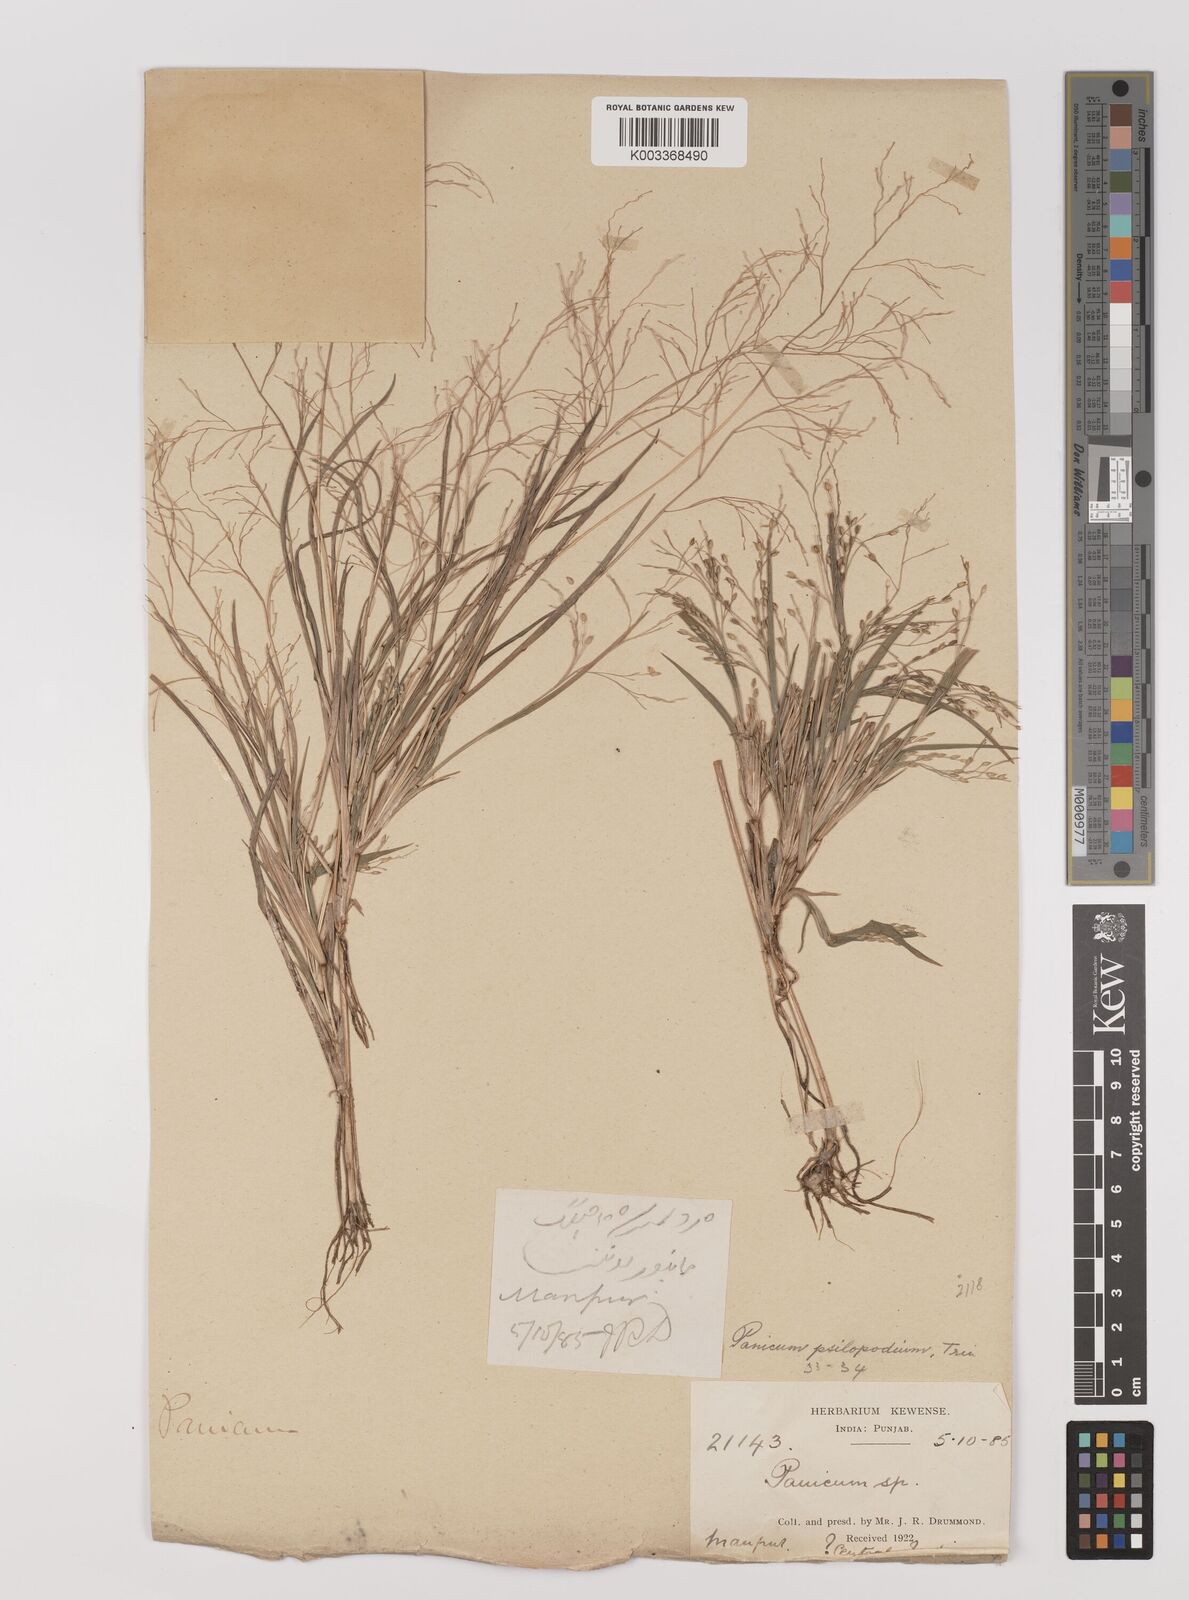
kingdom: Plantae
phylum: Tracheophyta
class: Liliopsida
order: Poales
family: Poaceae
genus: Panicum
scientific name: Panicum sumatrense
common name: Little millet
